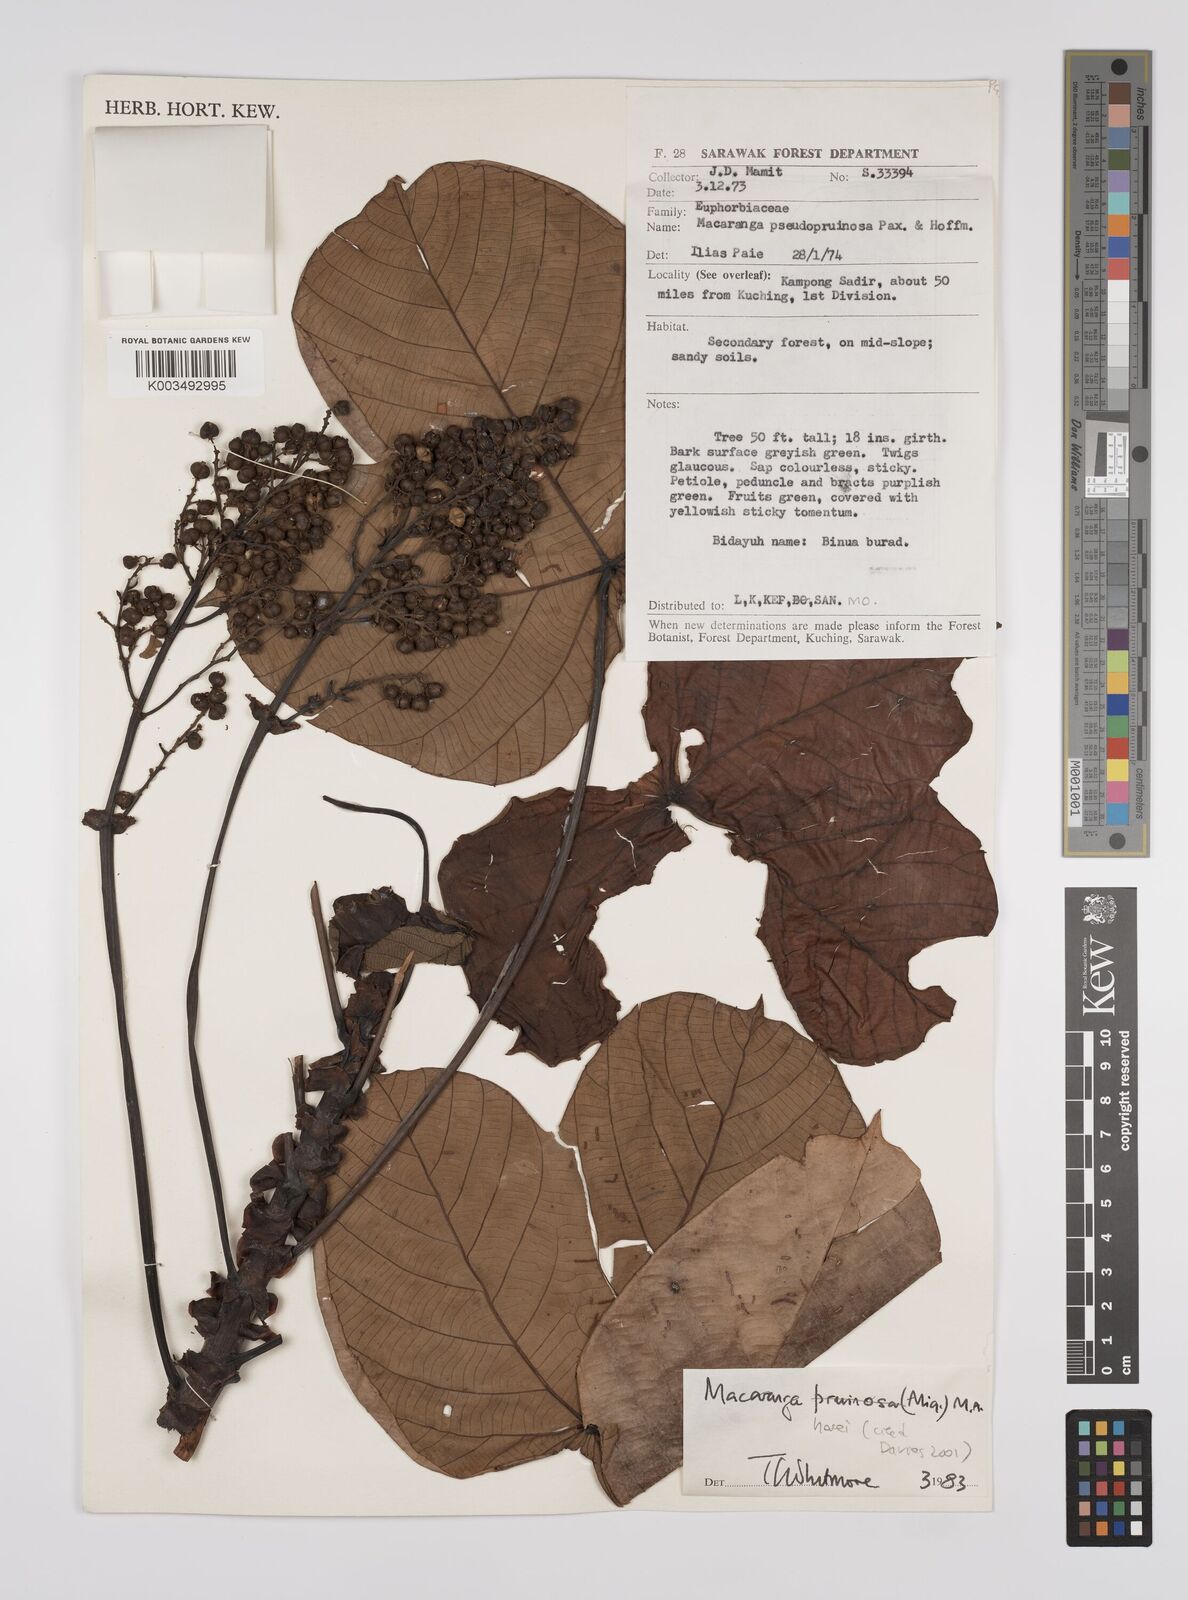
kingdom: Plantae
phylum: Tracheophyta
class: Magnoliopsida
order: Malpighiales
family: Euphorbiaceae
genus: Macaranga
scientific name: Macaranga hosei
